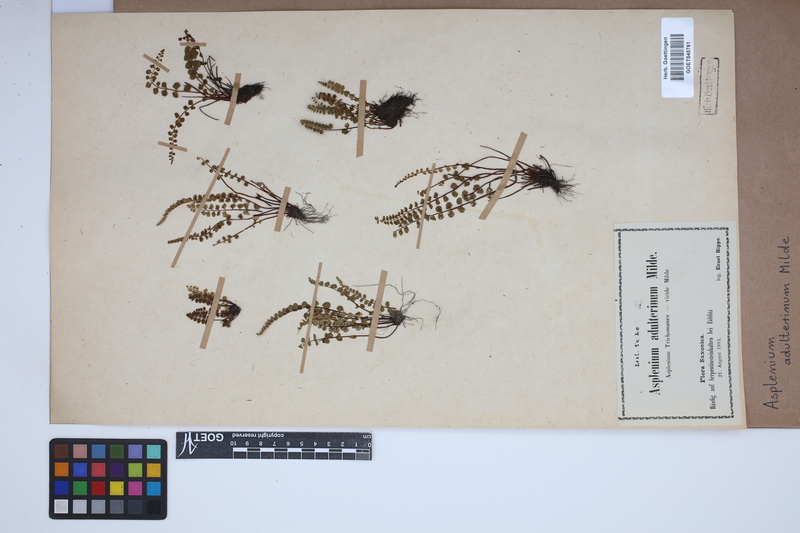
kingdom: Plantae
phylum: Tracheophyta
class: Polypodiopsida
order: Polypodiales
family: Aspleniaceae
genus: Asplenium
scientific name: Asplenium adulterinum
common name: Adulterated spleenwort
